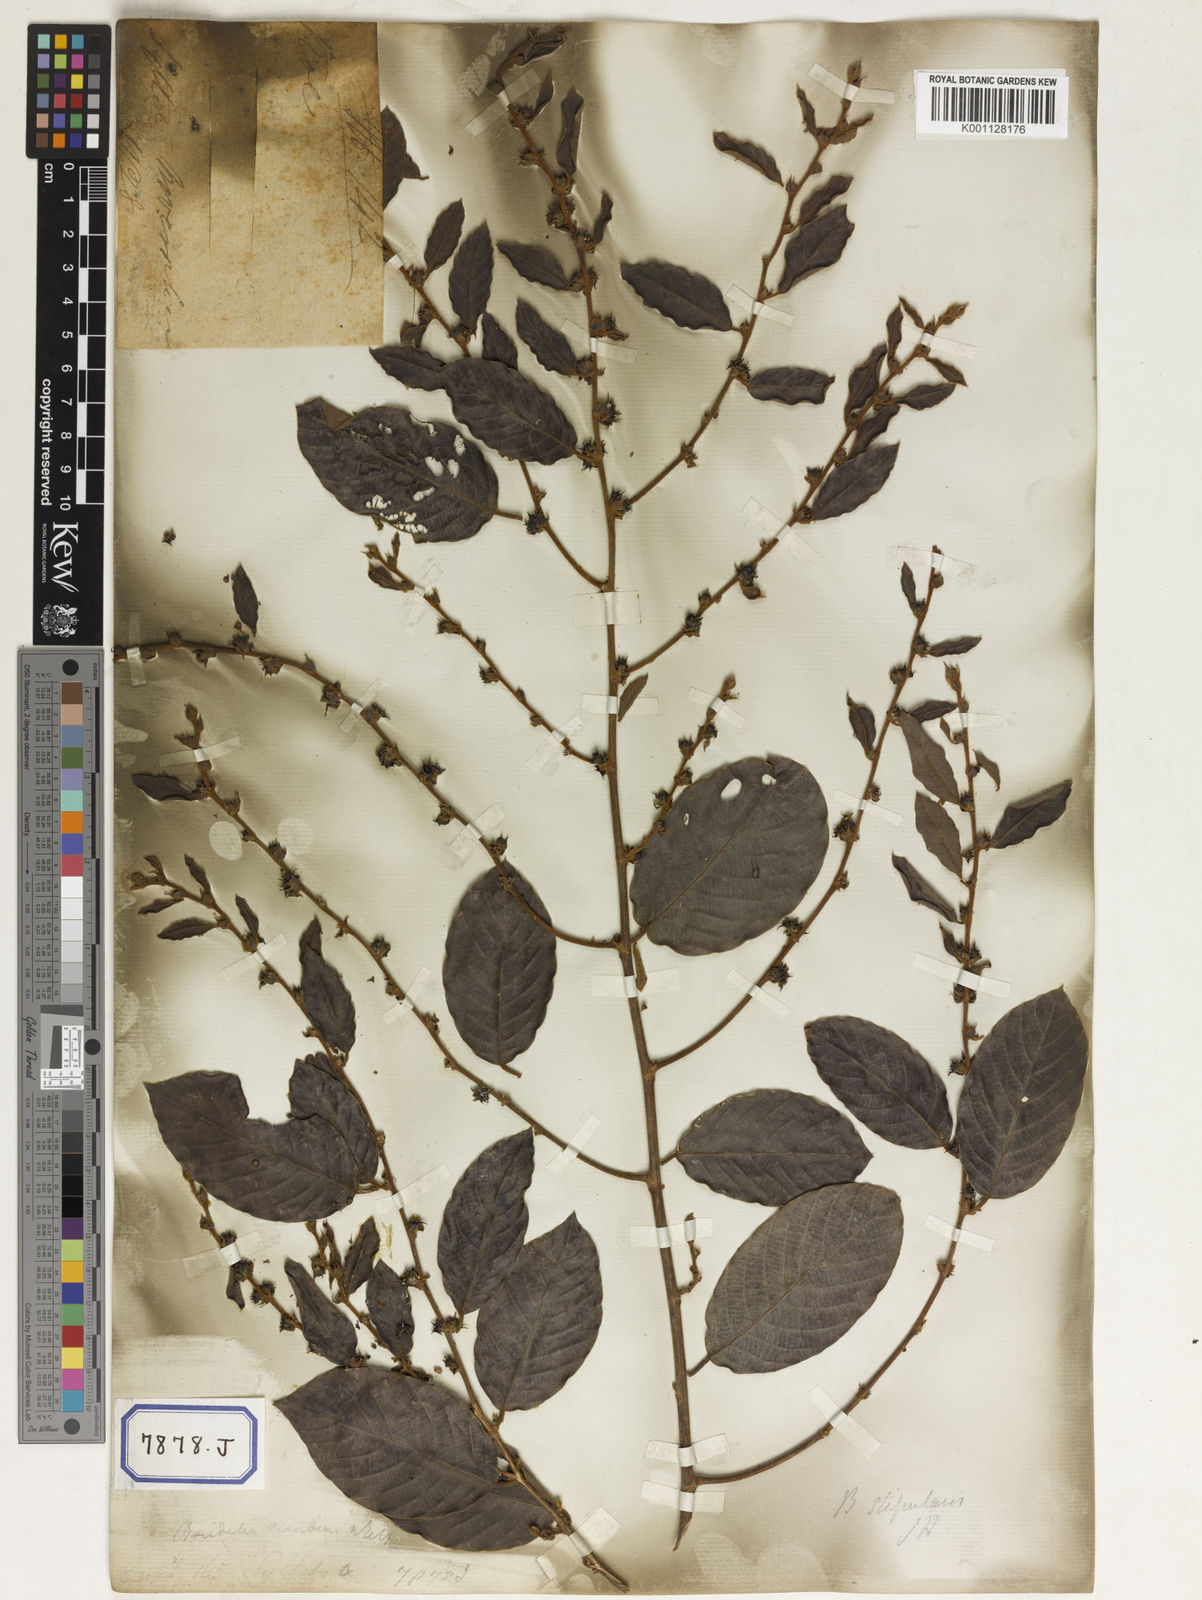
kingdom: Plantae
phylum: Tracheophyta
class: Magnoliopsida
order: Malpighiales
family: Phyllanthaceae
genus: Bridelia
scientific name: Bridelia
